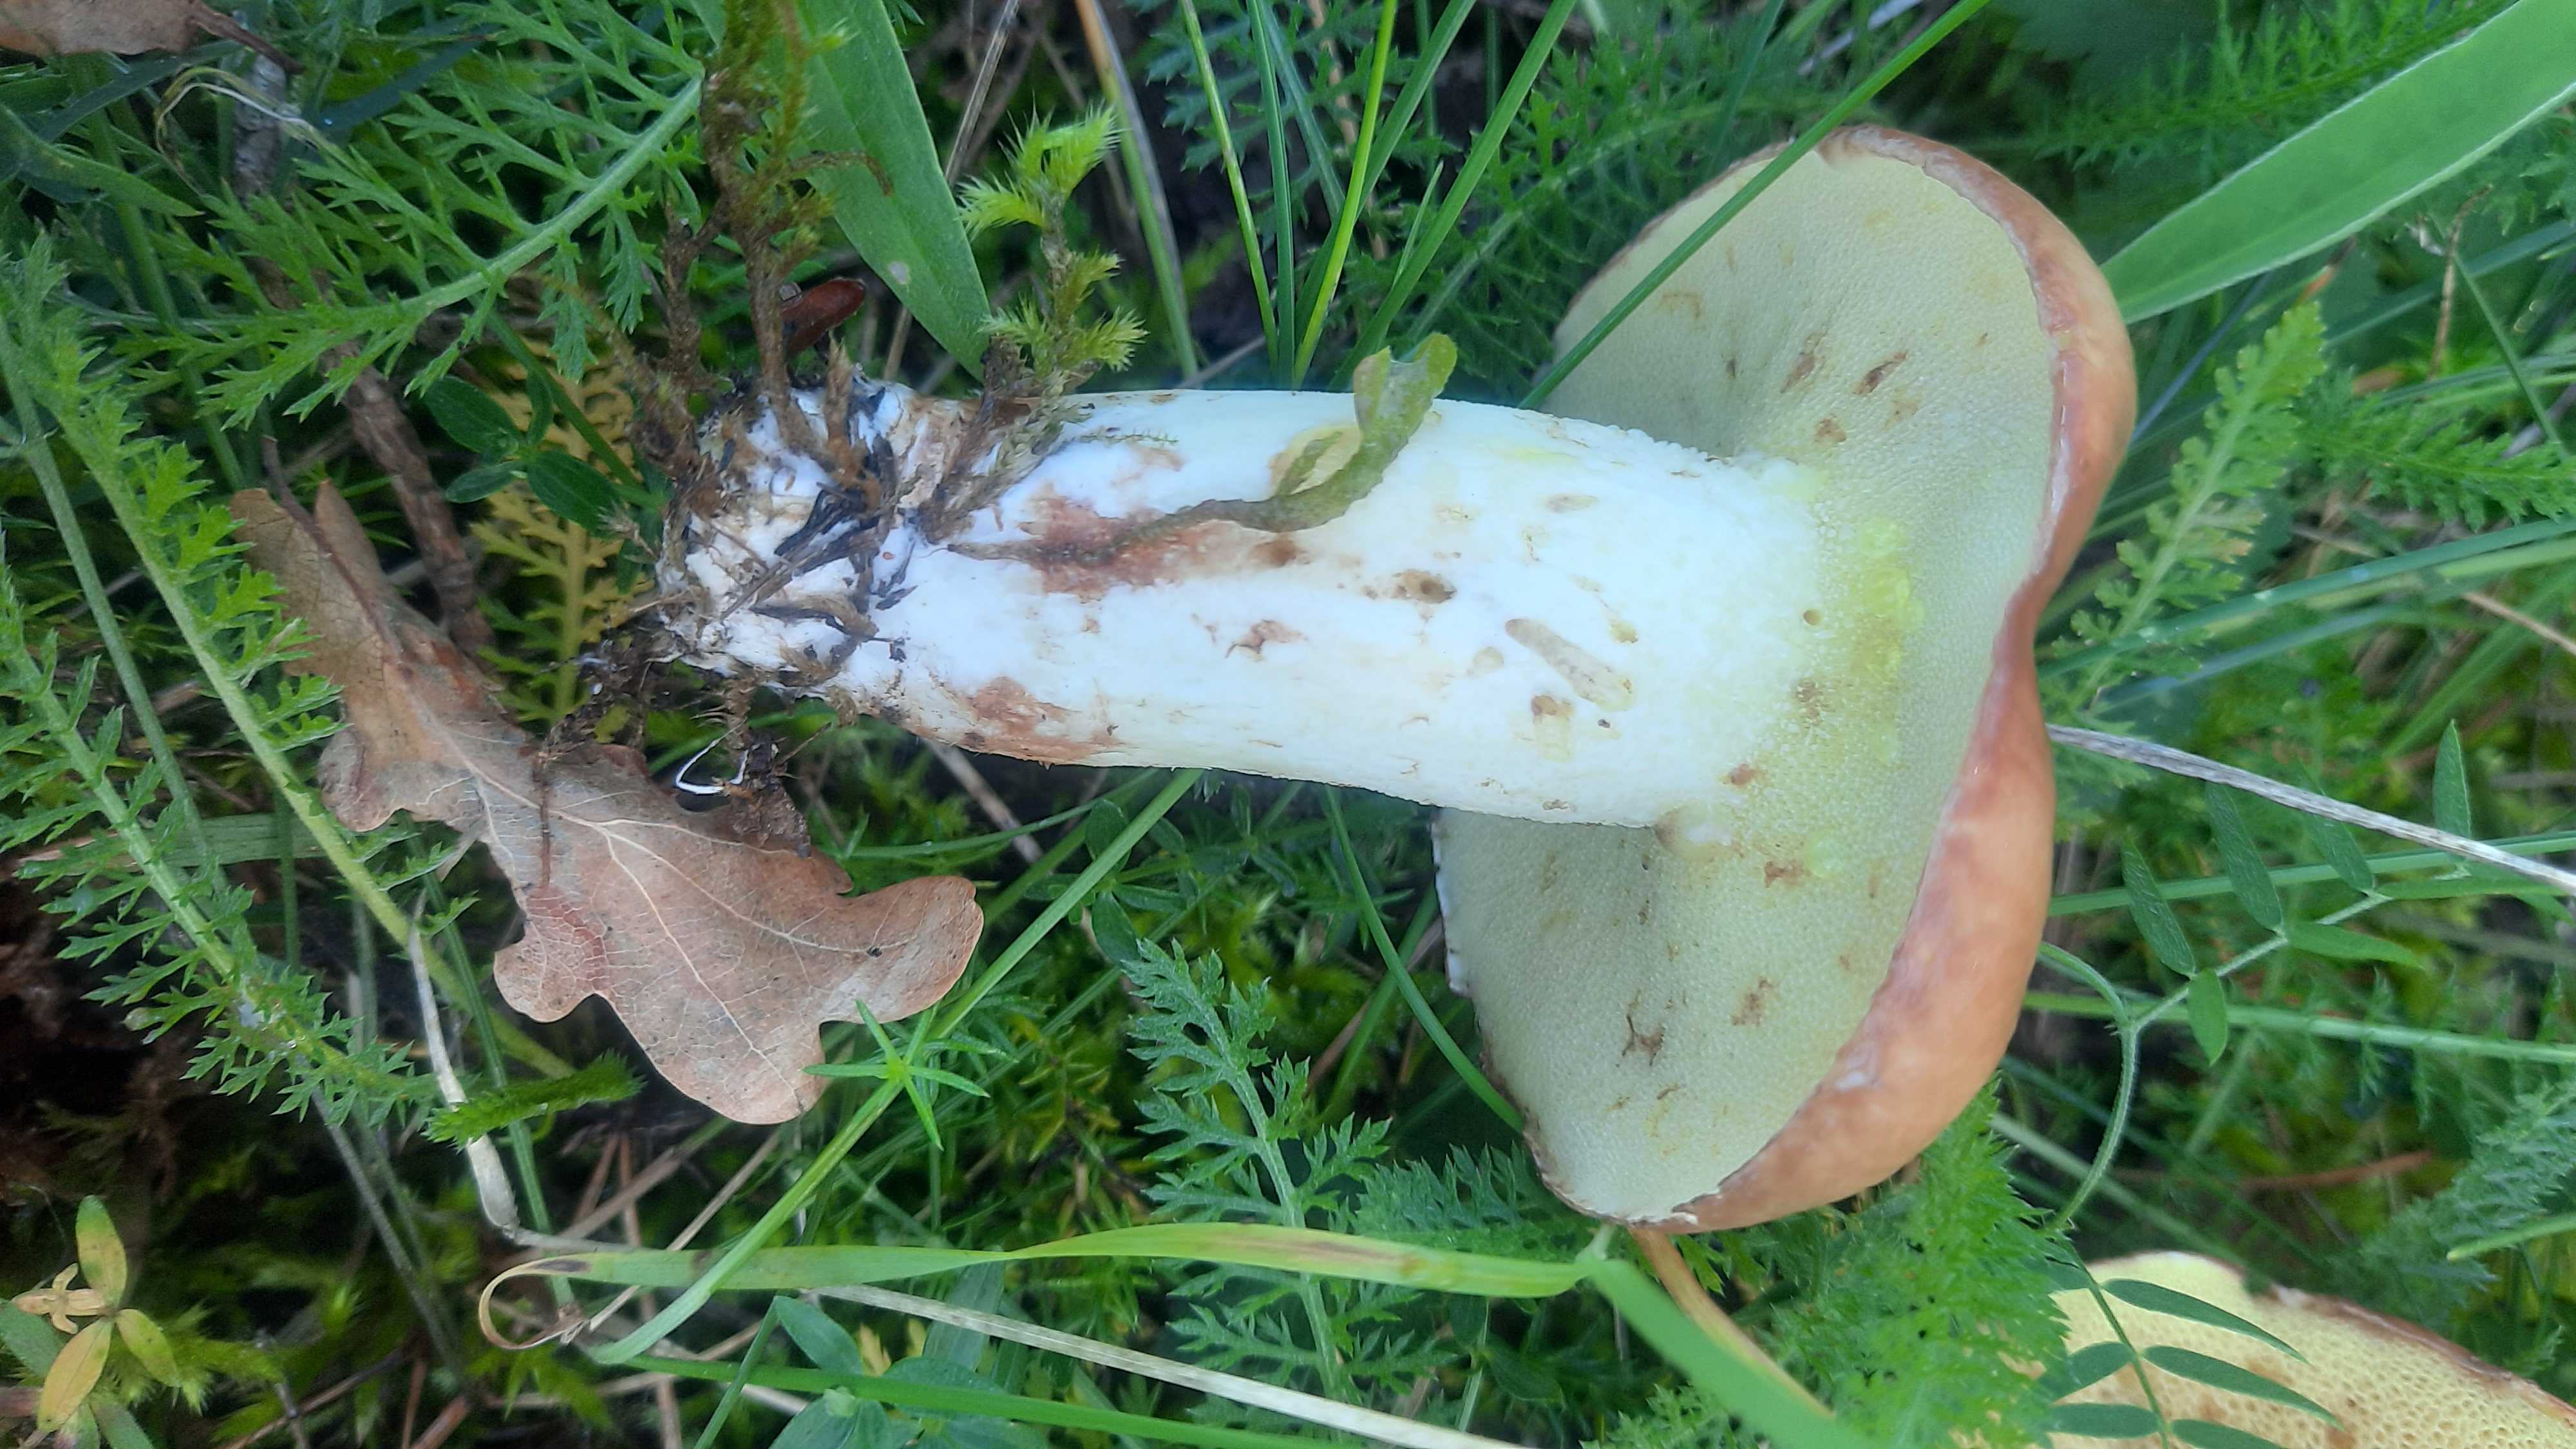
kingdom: Fungi
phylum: Basidiomycota
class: Agaricomycetes
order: Boletales
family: Suillaceae
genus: Suillus
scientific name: Suillus granulatus
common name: kornet slimrørhat
